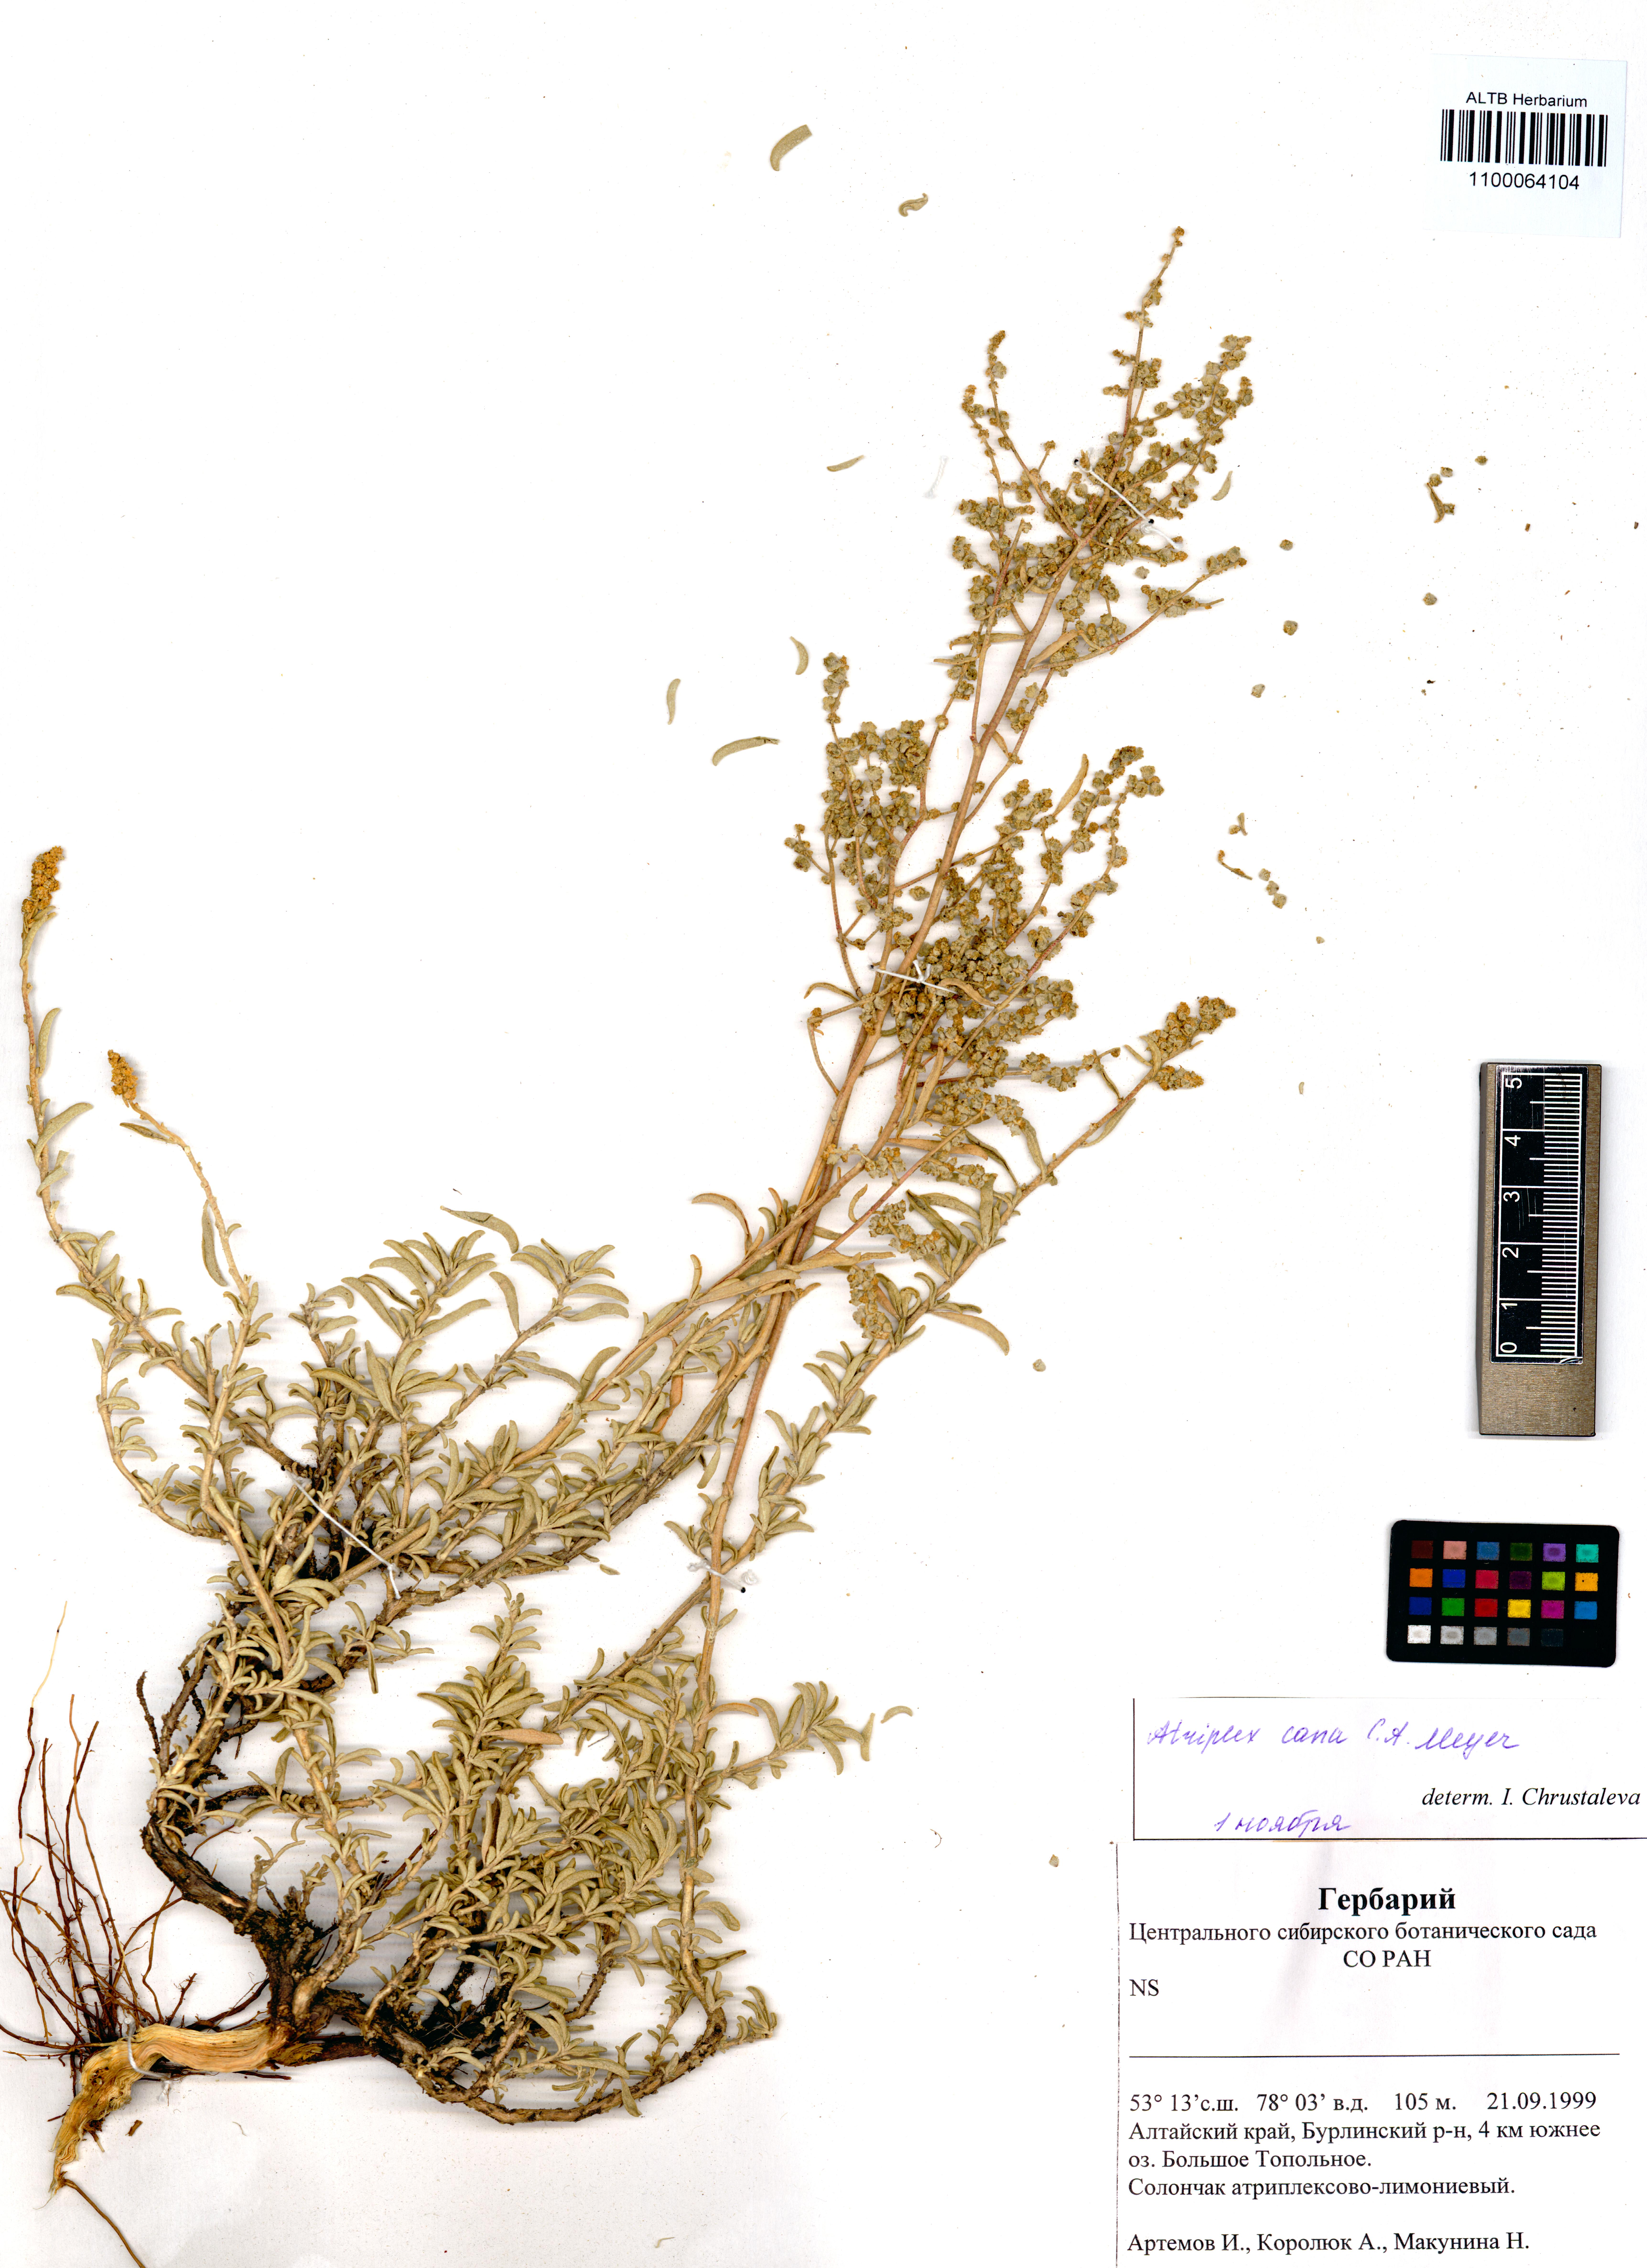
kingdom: Plantae
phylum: Tracheophyta
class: Magnoliopsida
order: Caryophyllales
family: Amaranthaceae
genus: Atriplex
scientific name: Atriplex cana
